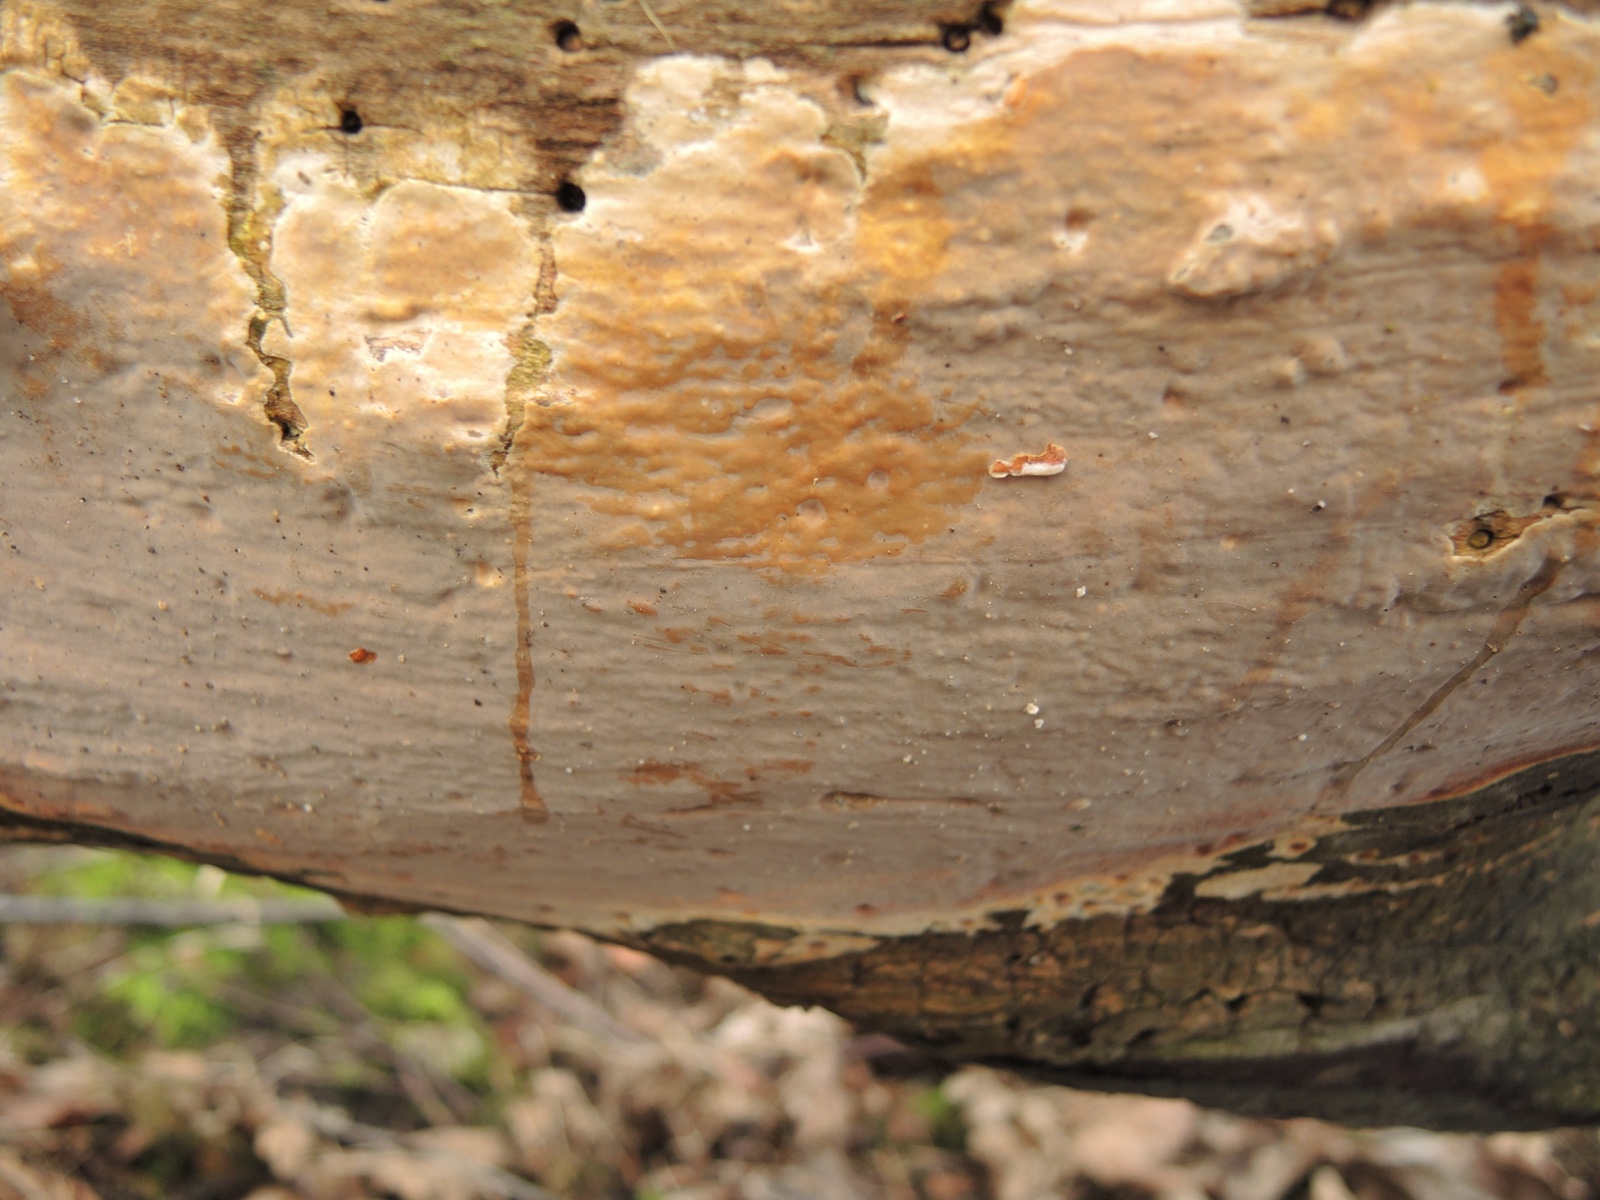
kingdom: Fungi
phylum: Basidiomycota
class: Agaricomycetes
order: Russulales
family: Peniophoraceae
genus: Scytinostroma
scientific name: Scytinostroma hemidichophyticum
